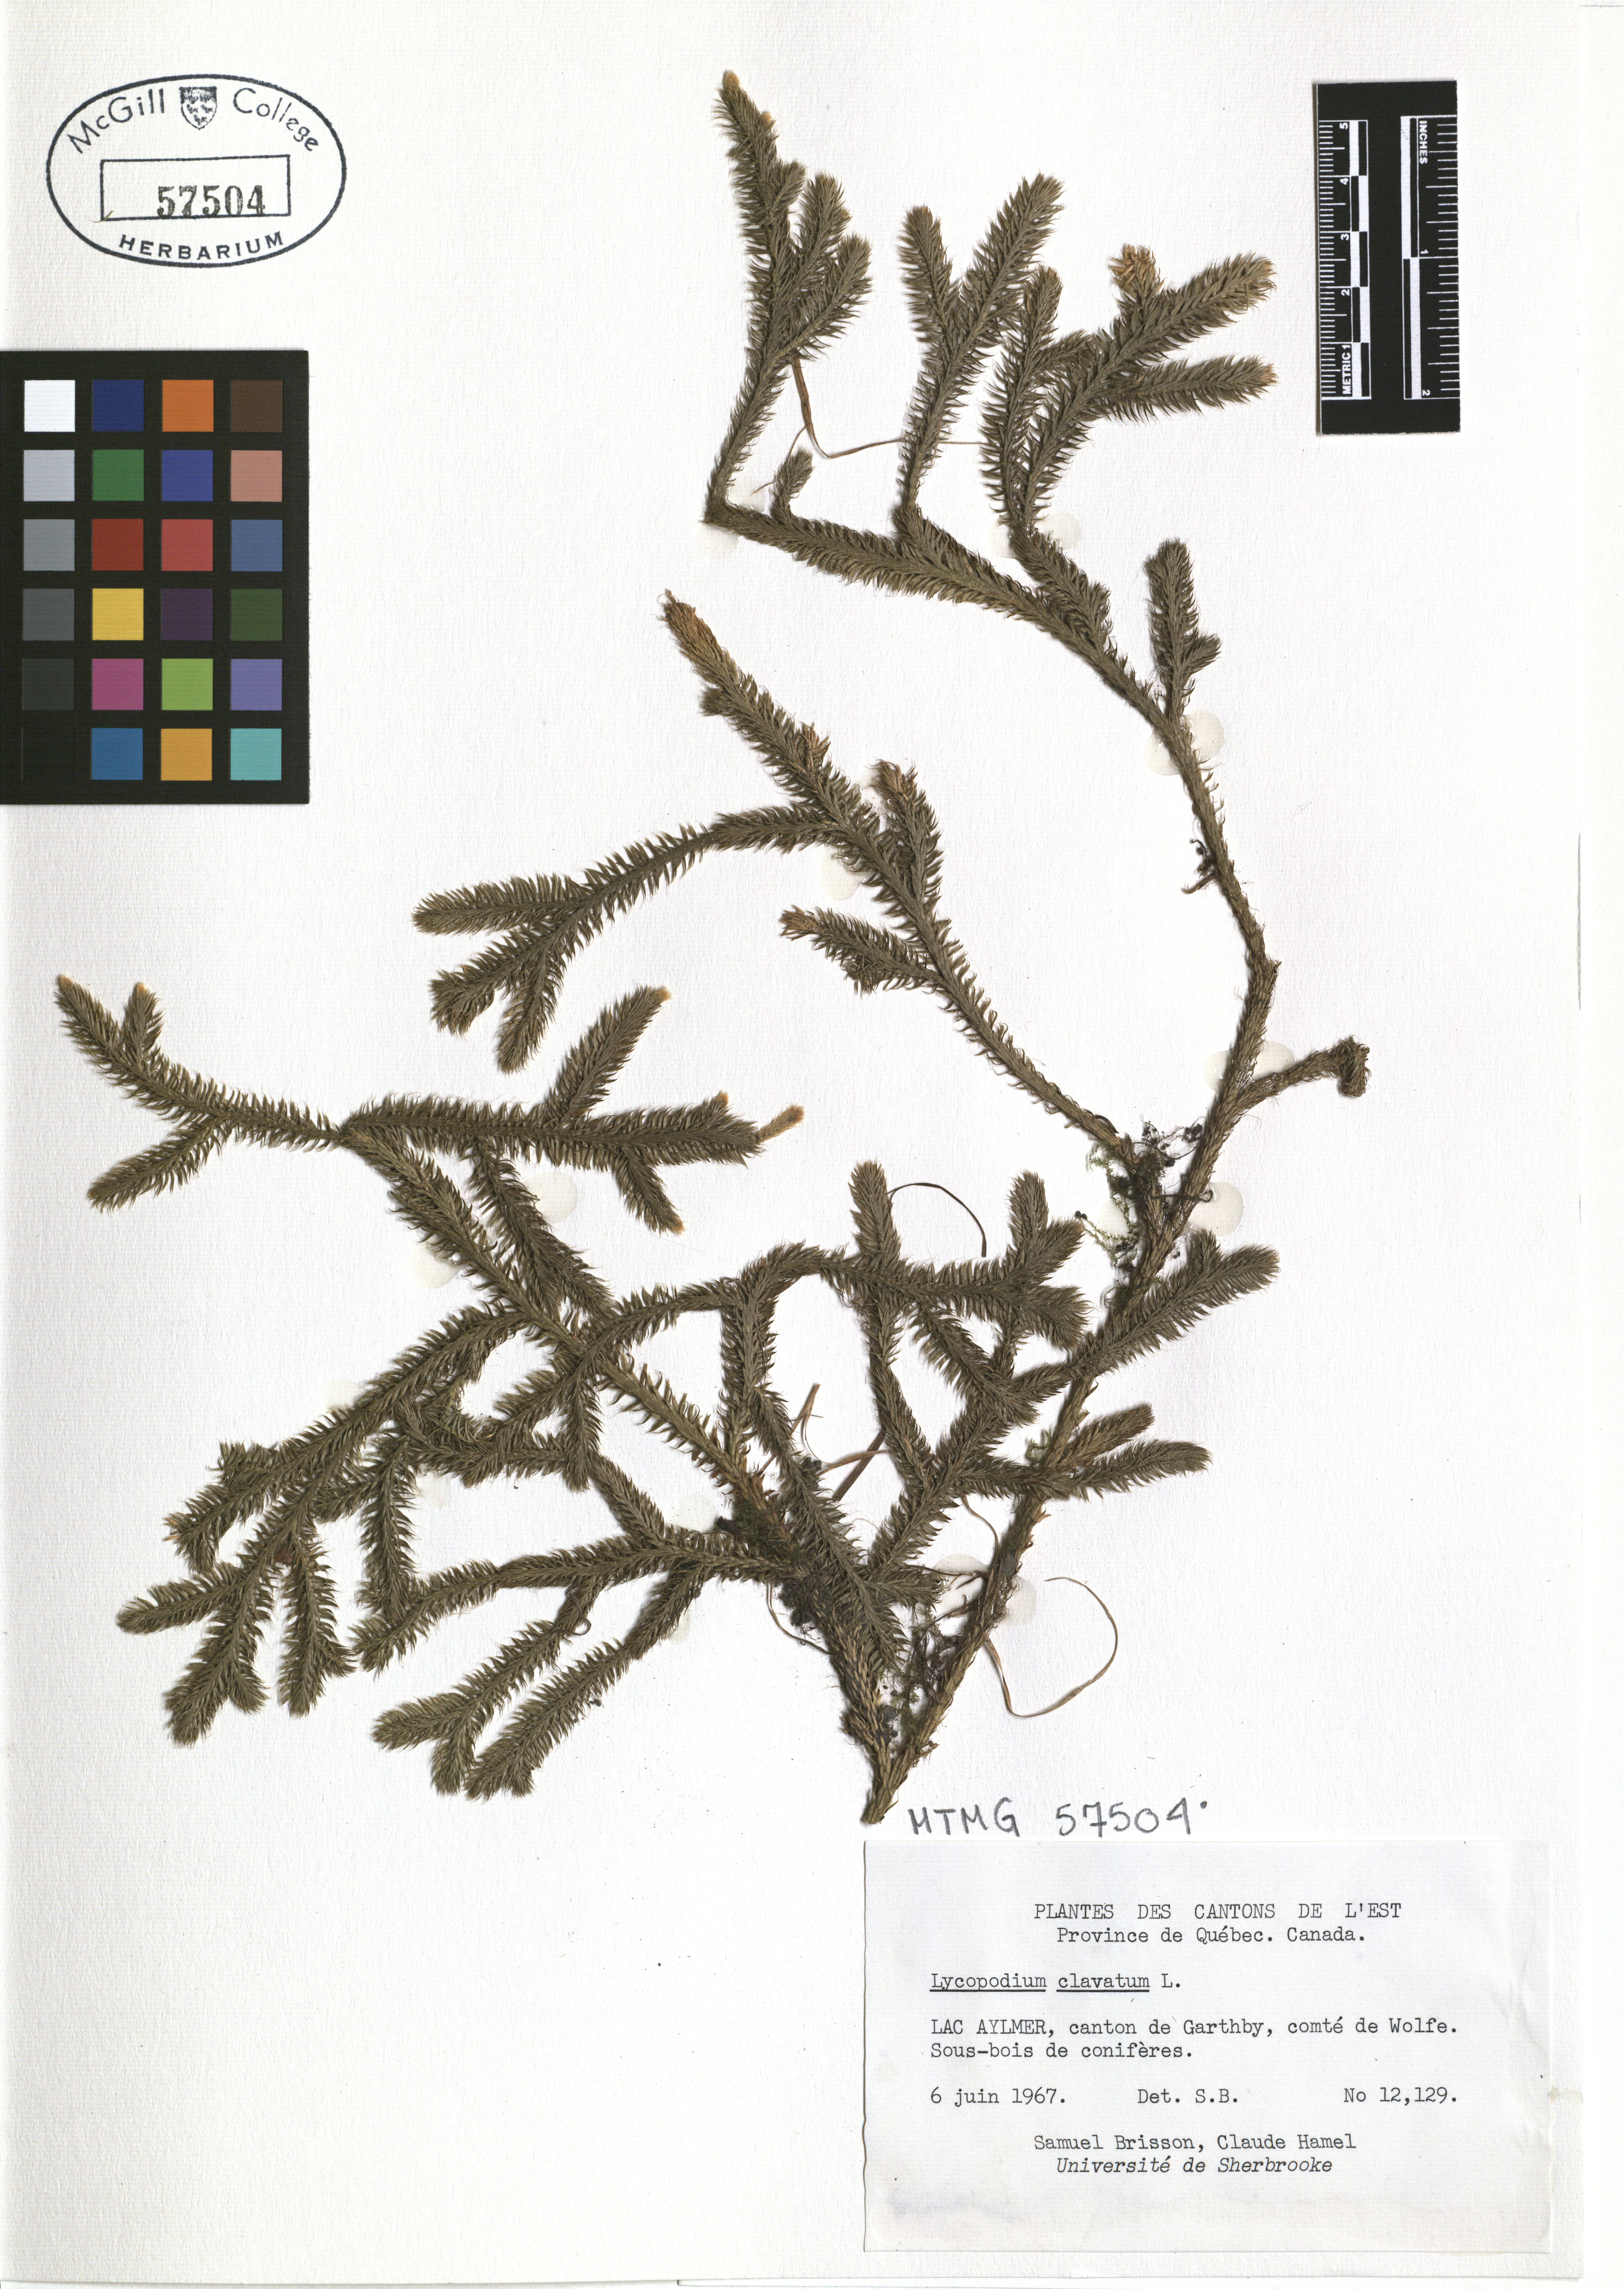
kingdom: Plantae
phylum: Tracheophyta
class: Lycopodiopsida
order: Lycopodiales
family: Lycopodiaceae
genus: Lycopodium
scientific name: Lycopodium clavatum
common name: Stag's-horn clubmoss
